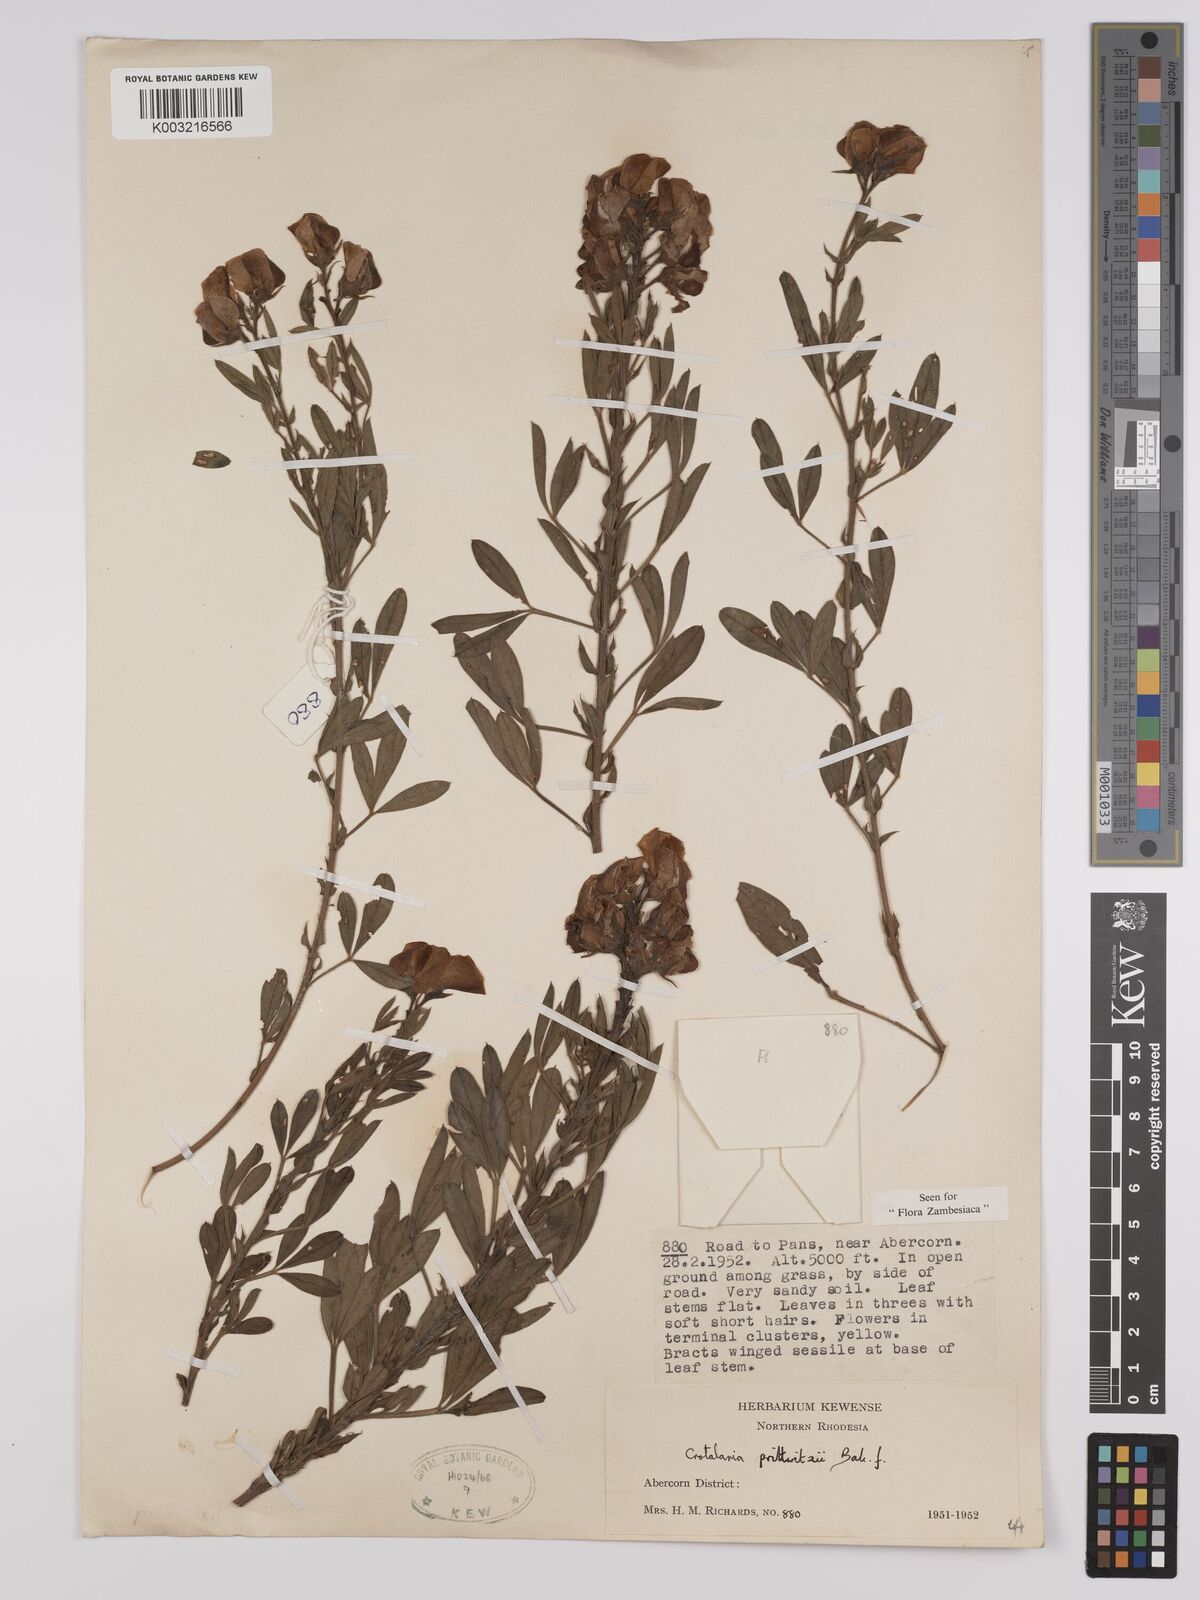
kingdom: Plantae
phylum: Tracheophyta
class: Magnoliopsida
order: Fabales
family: Fabaceae
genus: Crotalaria
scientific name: Crotalaria prittwitzii
